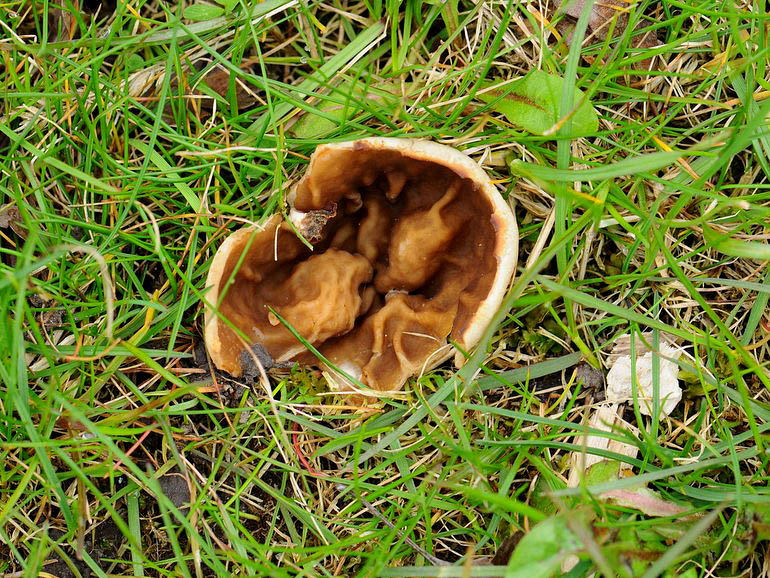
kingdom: Fungi
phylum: Ascomycota
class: Pezizomycetes
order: Pezizales
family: Morchellaceae
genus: Disciotis
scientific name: Disciotis venosa
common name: klor-bægermorkel
